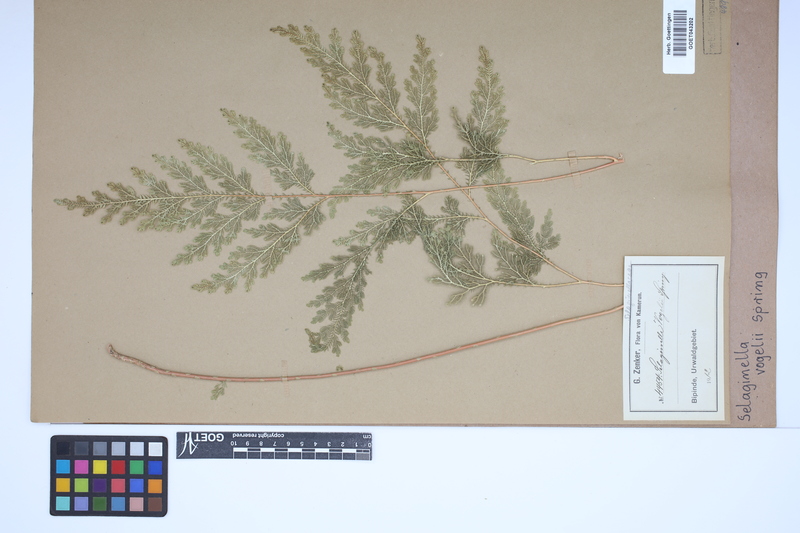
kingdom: Plantae
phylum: Tracheophyta
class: Lycopodiopsida
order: Selaginellales
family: Selaginellaceae
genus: Selaginella
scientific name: Selaginella vogelii
